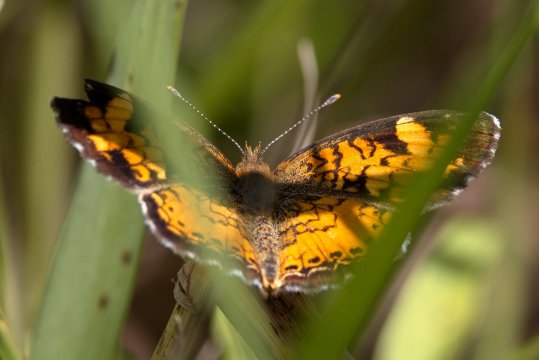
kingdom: Animalia
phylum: Arthropoda
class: Insecta
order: Lepidoptera
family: Nymphalidae
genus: Phyciodes
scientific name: Phyciodes tharos
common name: Northern Crescent
